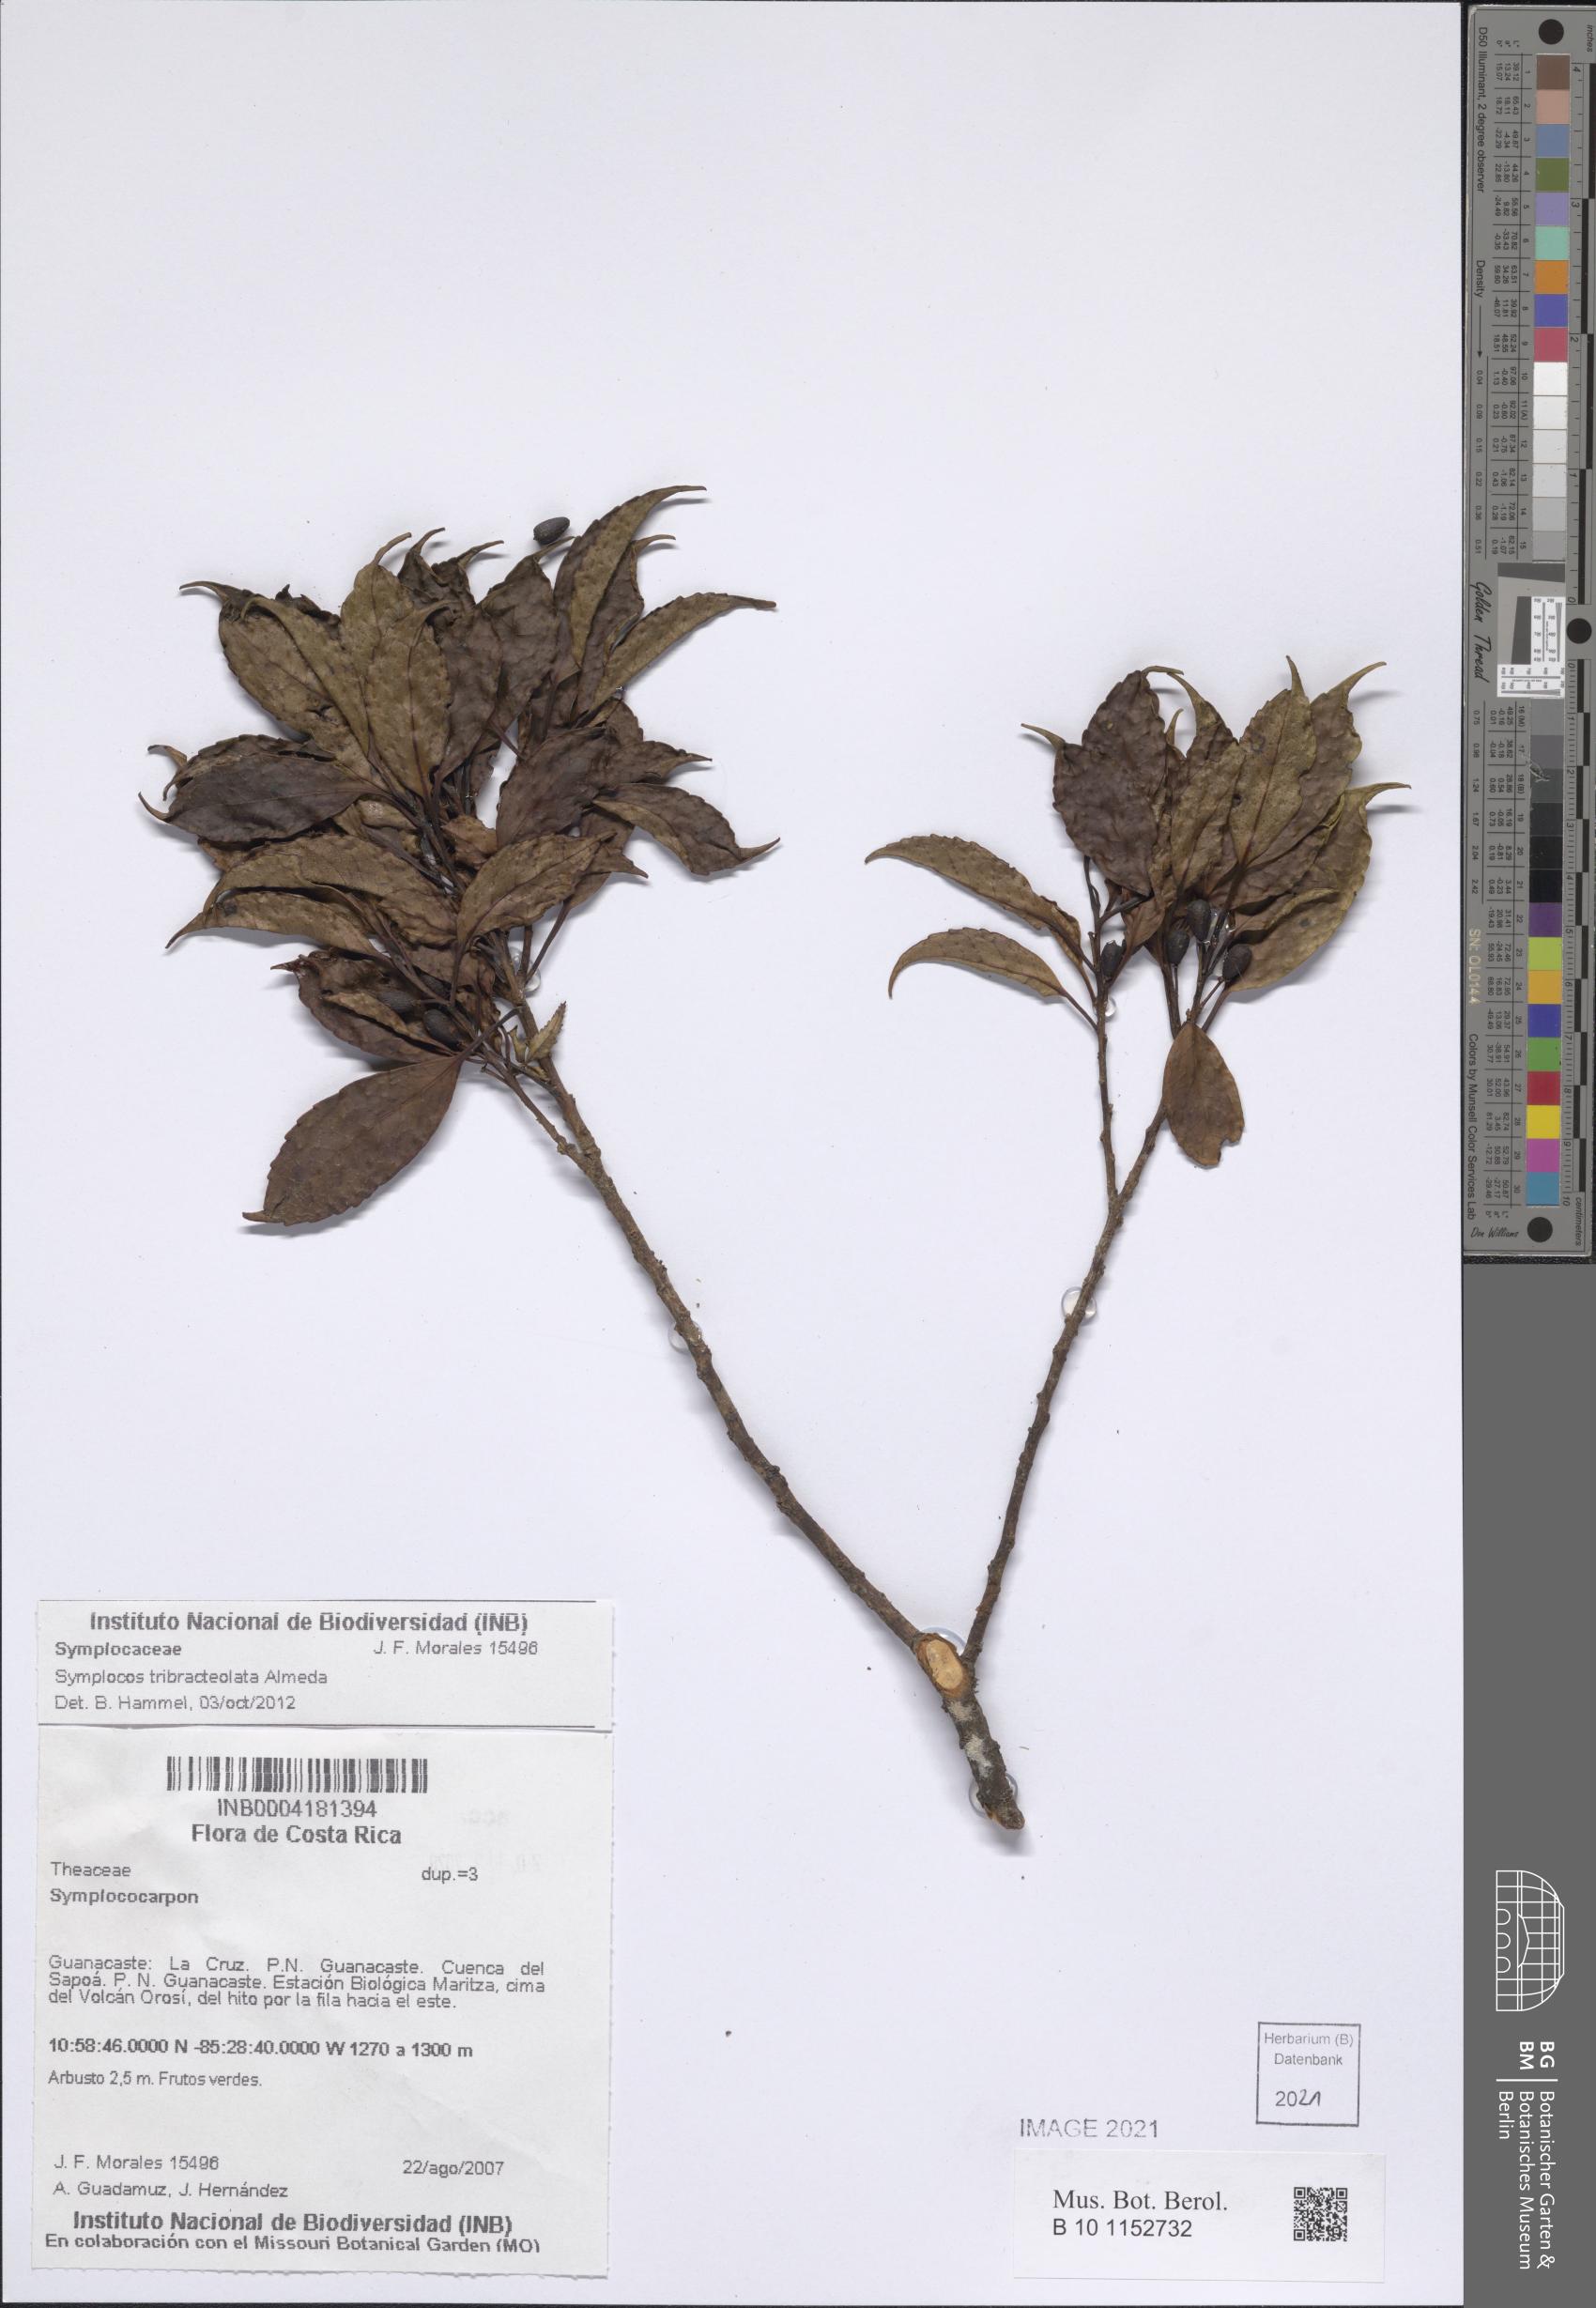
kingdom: Plantae
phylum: Tracheophyta
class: Magnoliopsida
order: Ericales
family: Symplocaceae
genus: Symplocos
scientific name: Symplocos tribracteolata
